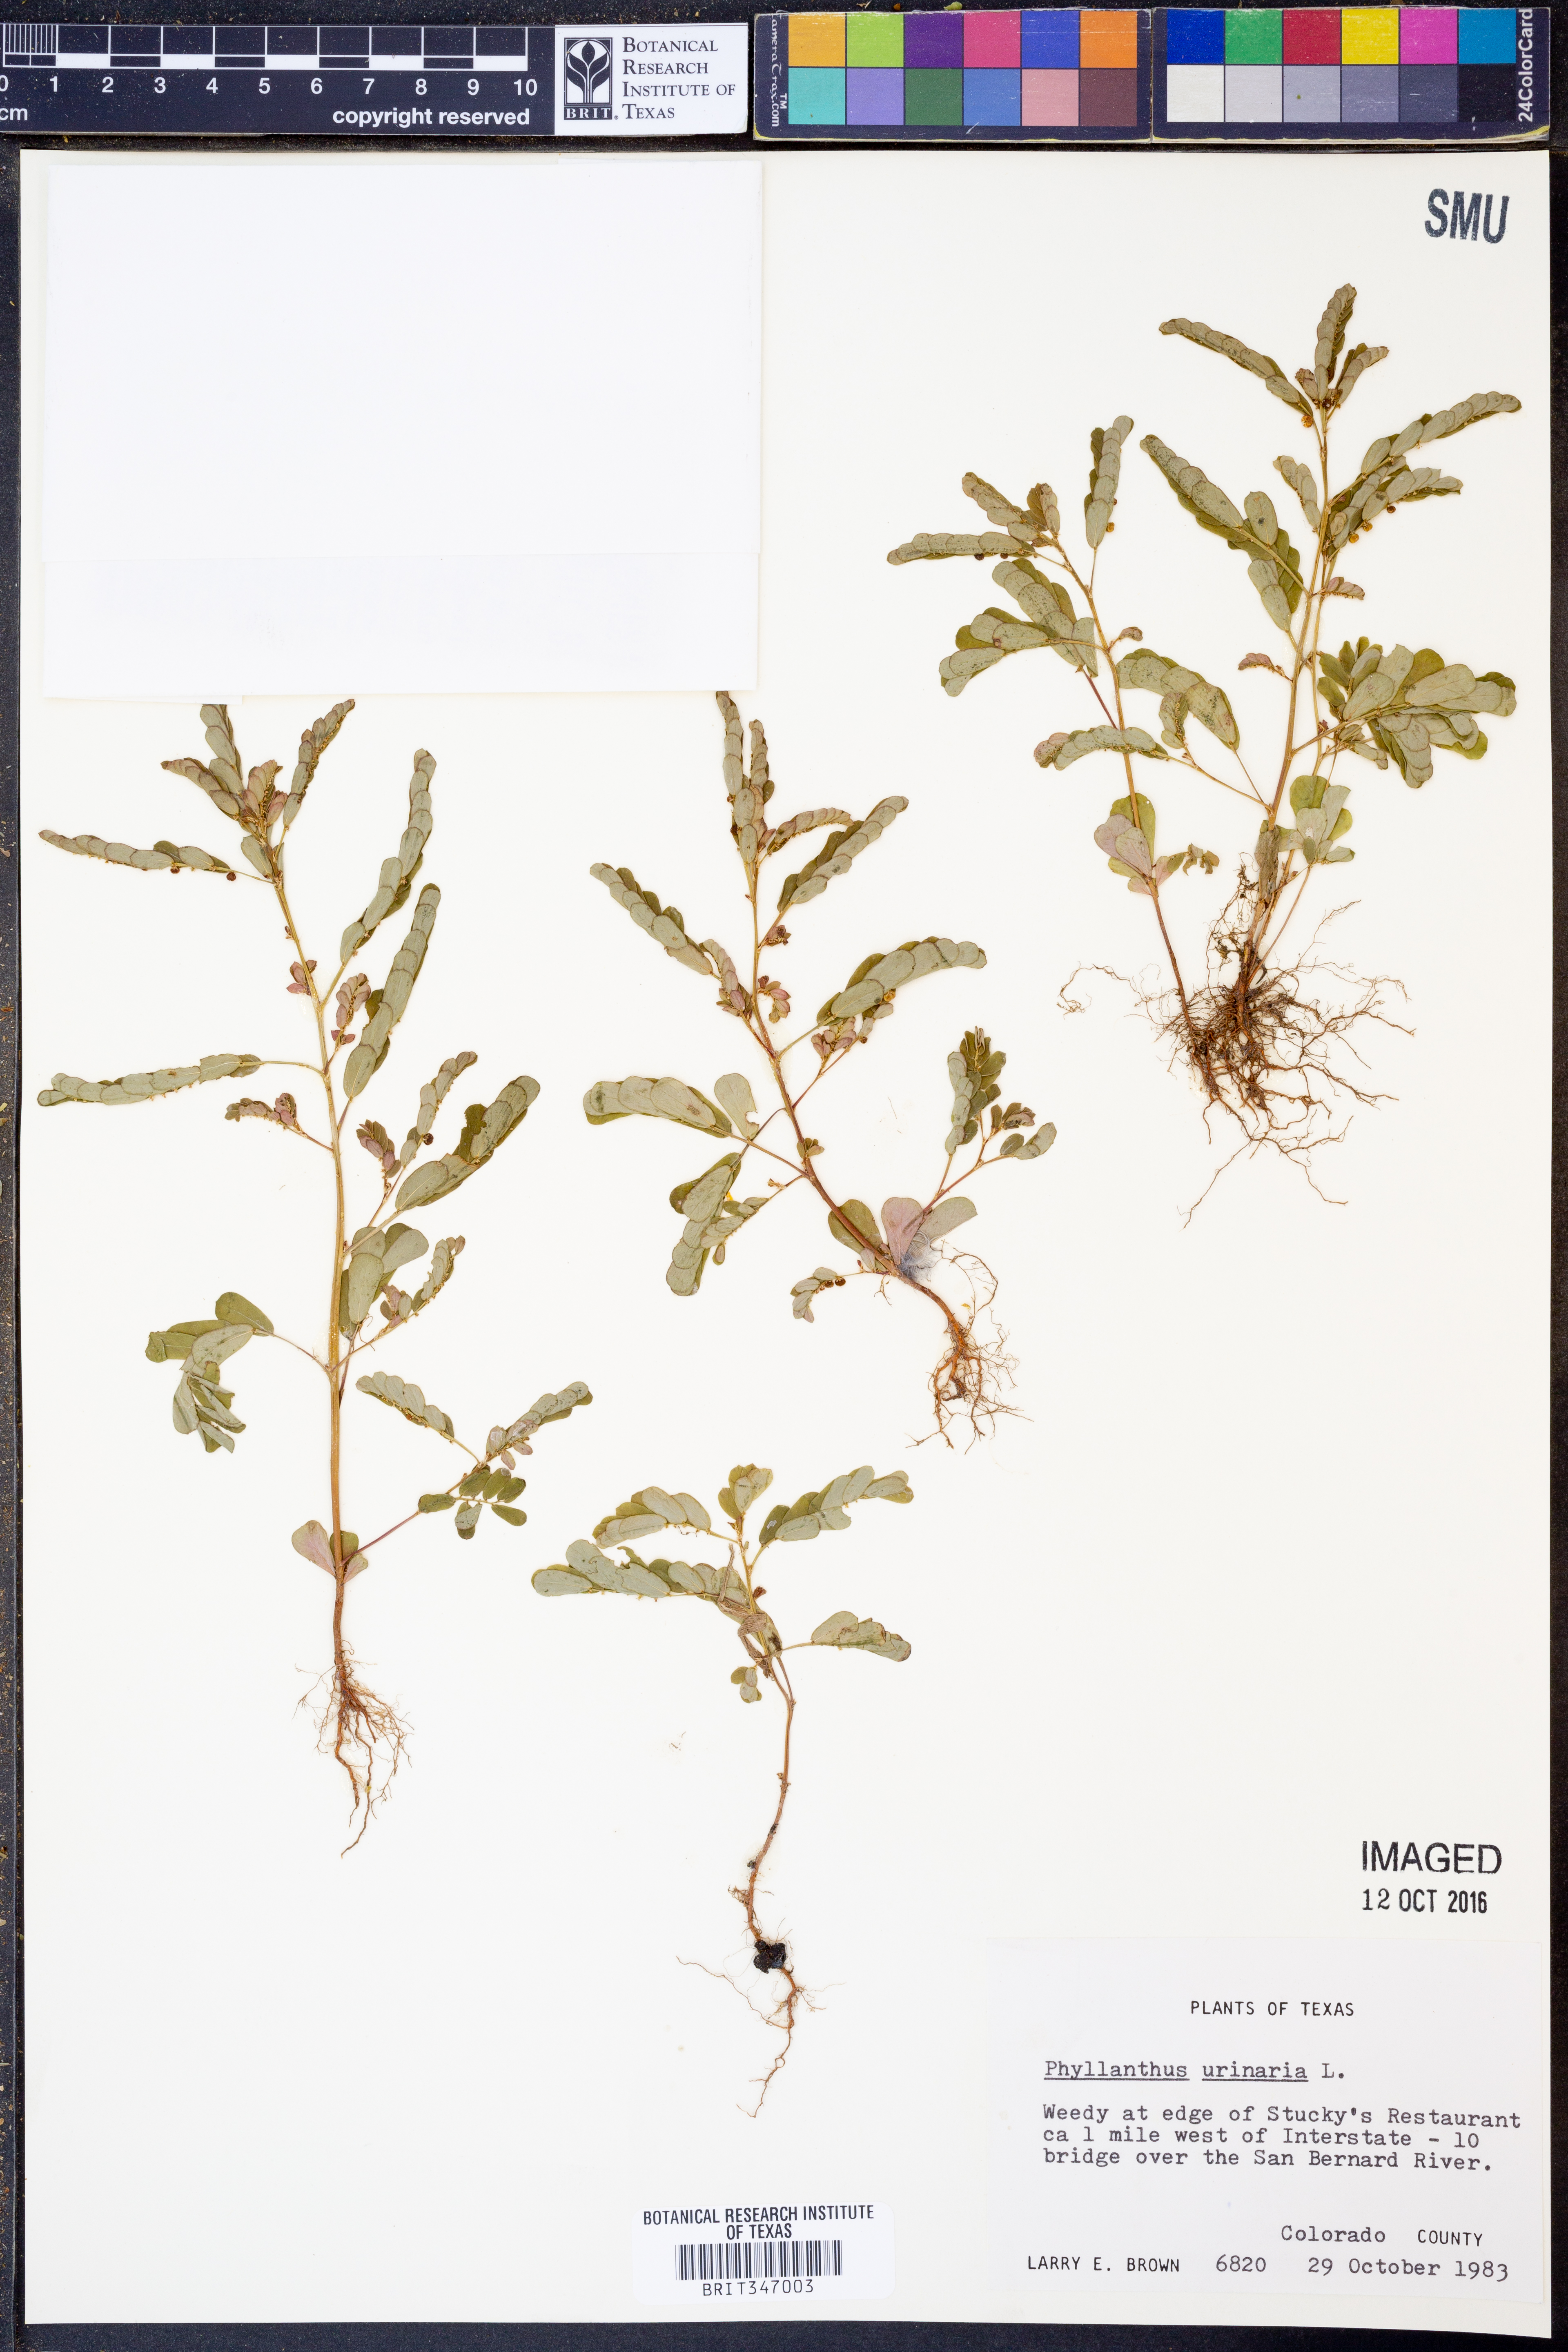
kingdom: Plantae
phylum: Tracheophyta
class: Magnoliopsida
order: Malpighiales
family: Phyllanthaceae
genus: Phyllanthus
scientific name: Phyllanthus urinaria
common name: Chamber bitter
